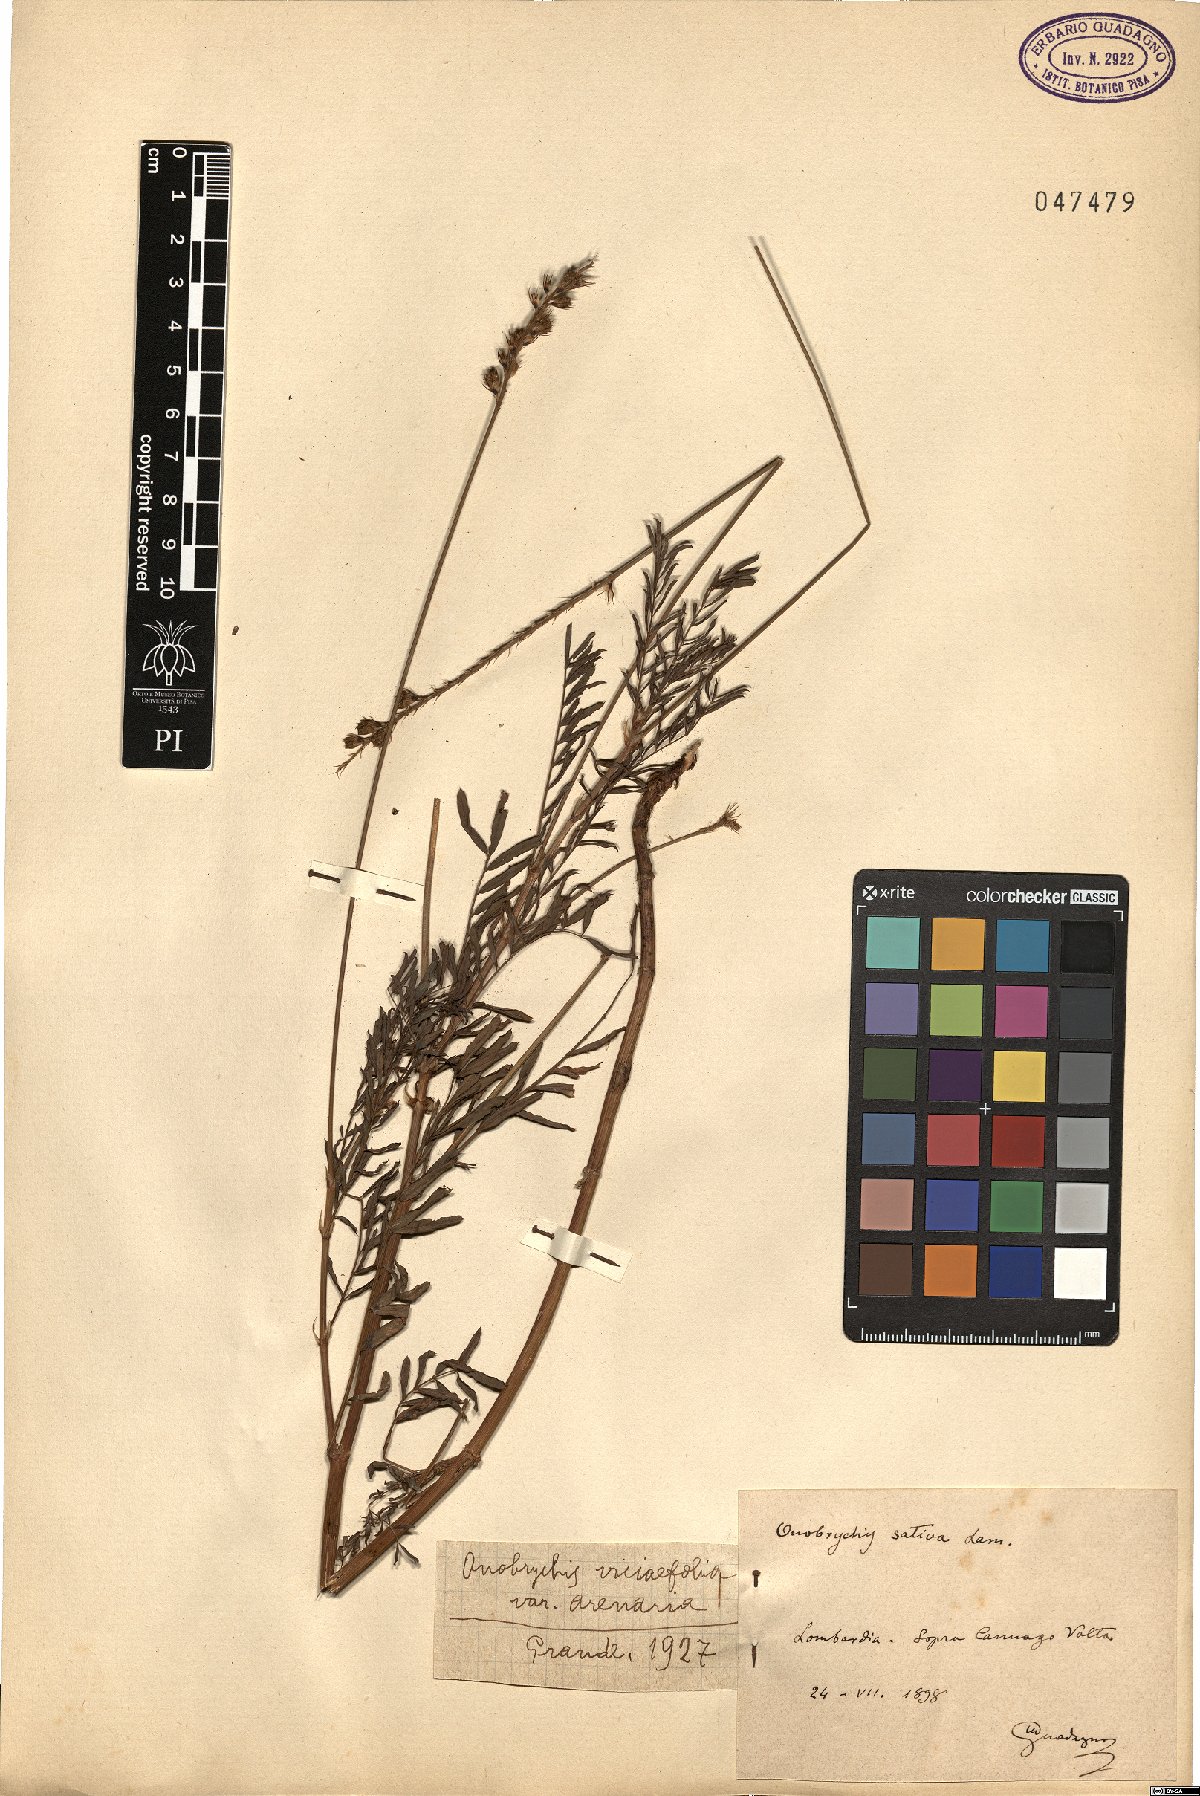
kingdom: Plantae
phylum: Tracheophyta
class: Magnoliopsida
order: Fabales
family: Fabaceae
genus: Onobrychis
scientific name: Onobrychis arenaria
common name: Sand esparcet
